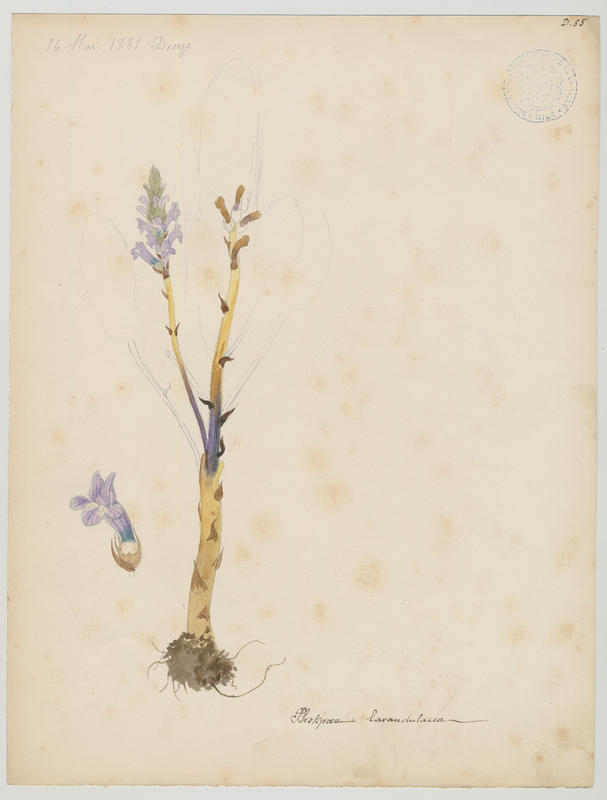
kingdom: Plantae
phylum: Tracheophyta
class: Magnoliopsida
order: Lamiales
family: Orobanchaceae
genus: Phelipanche
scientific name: Phelipanche lavandulacea
